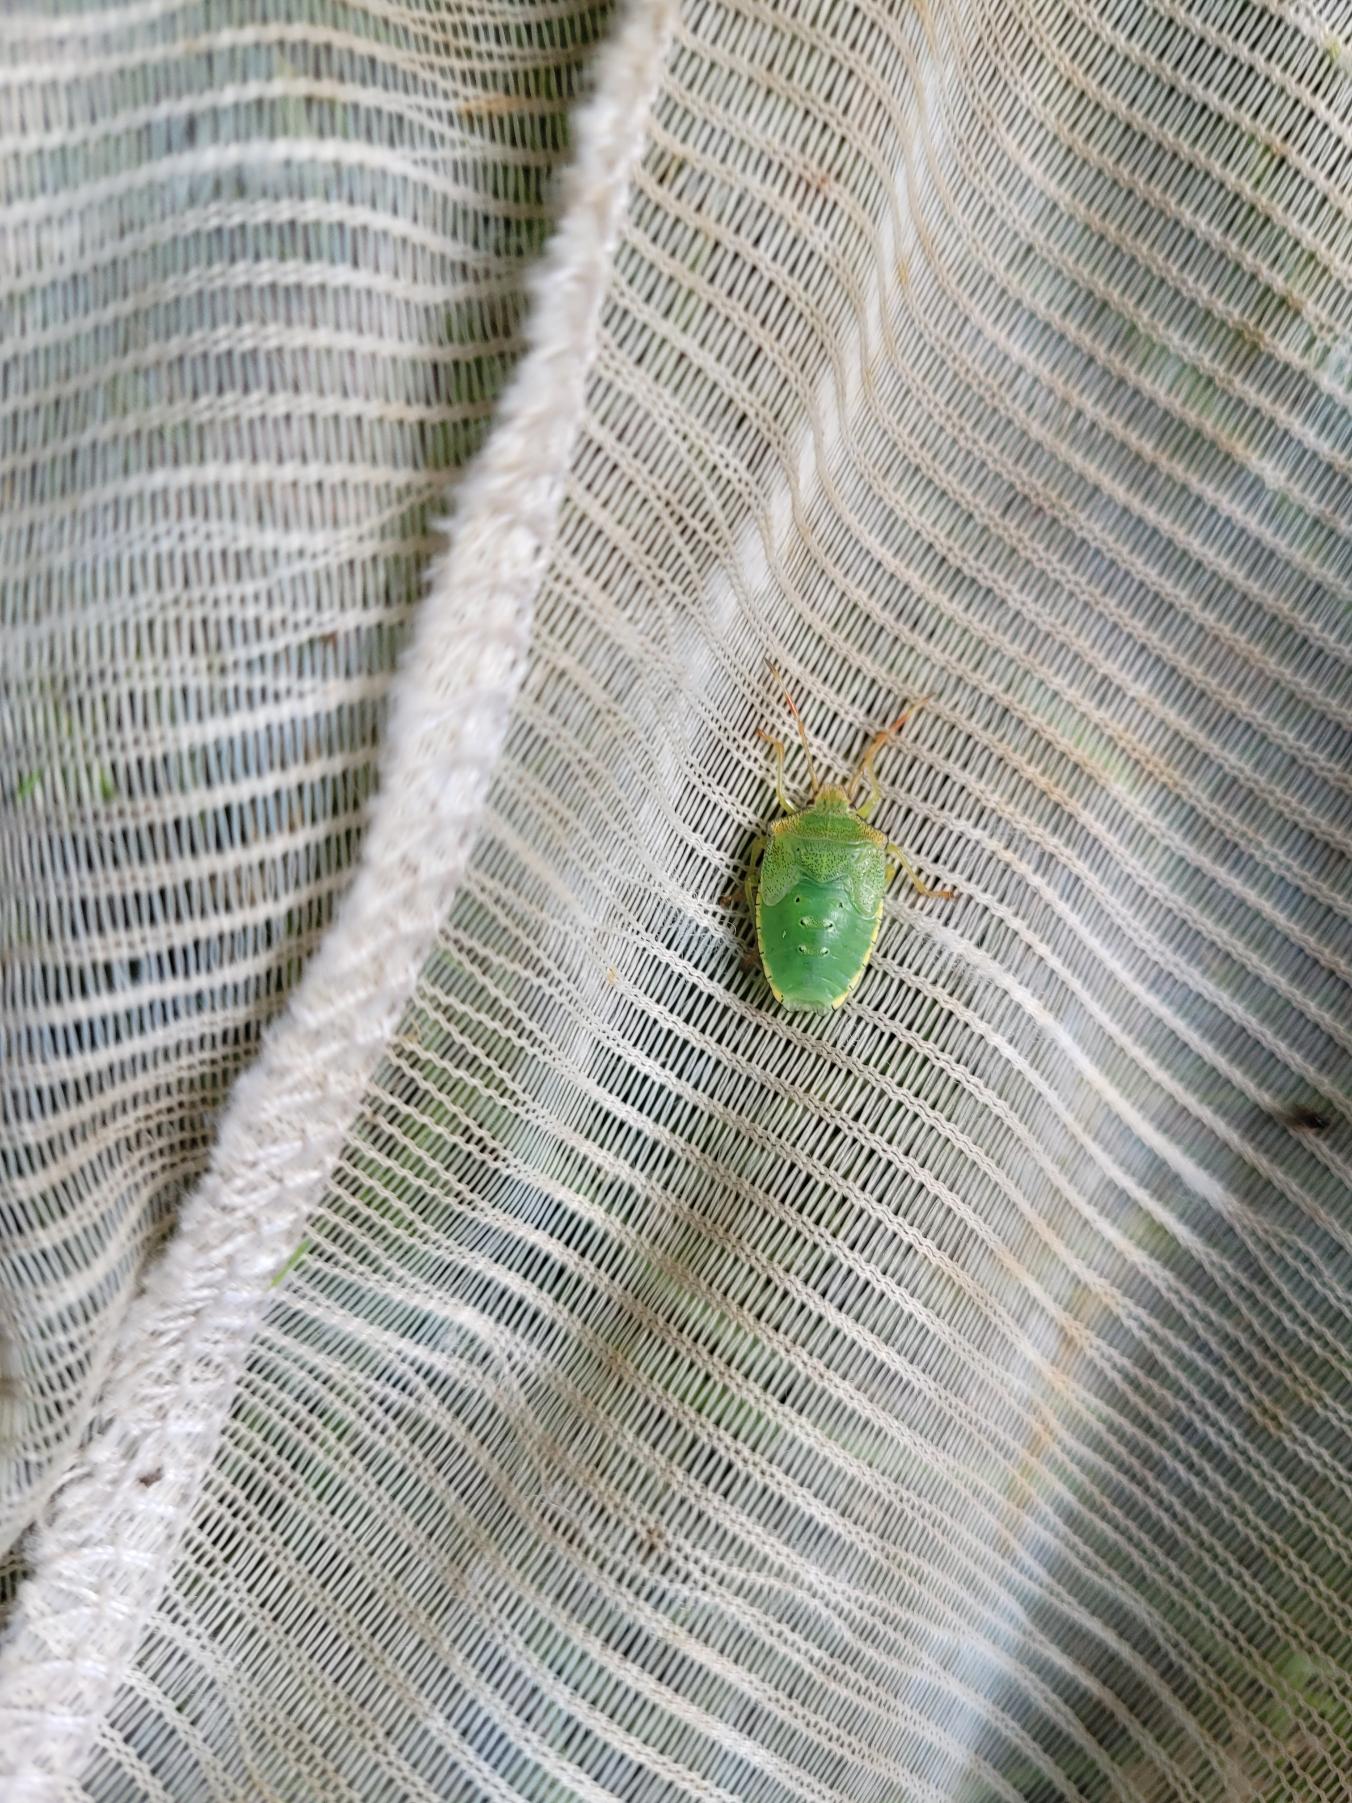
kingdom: Animalia
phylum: Arthropoda
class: Insecta
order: Hemiptera
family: Pentatomidae
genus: Palomena
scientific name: Palomena prasina
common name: Grøn bredtæge
